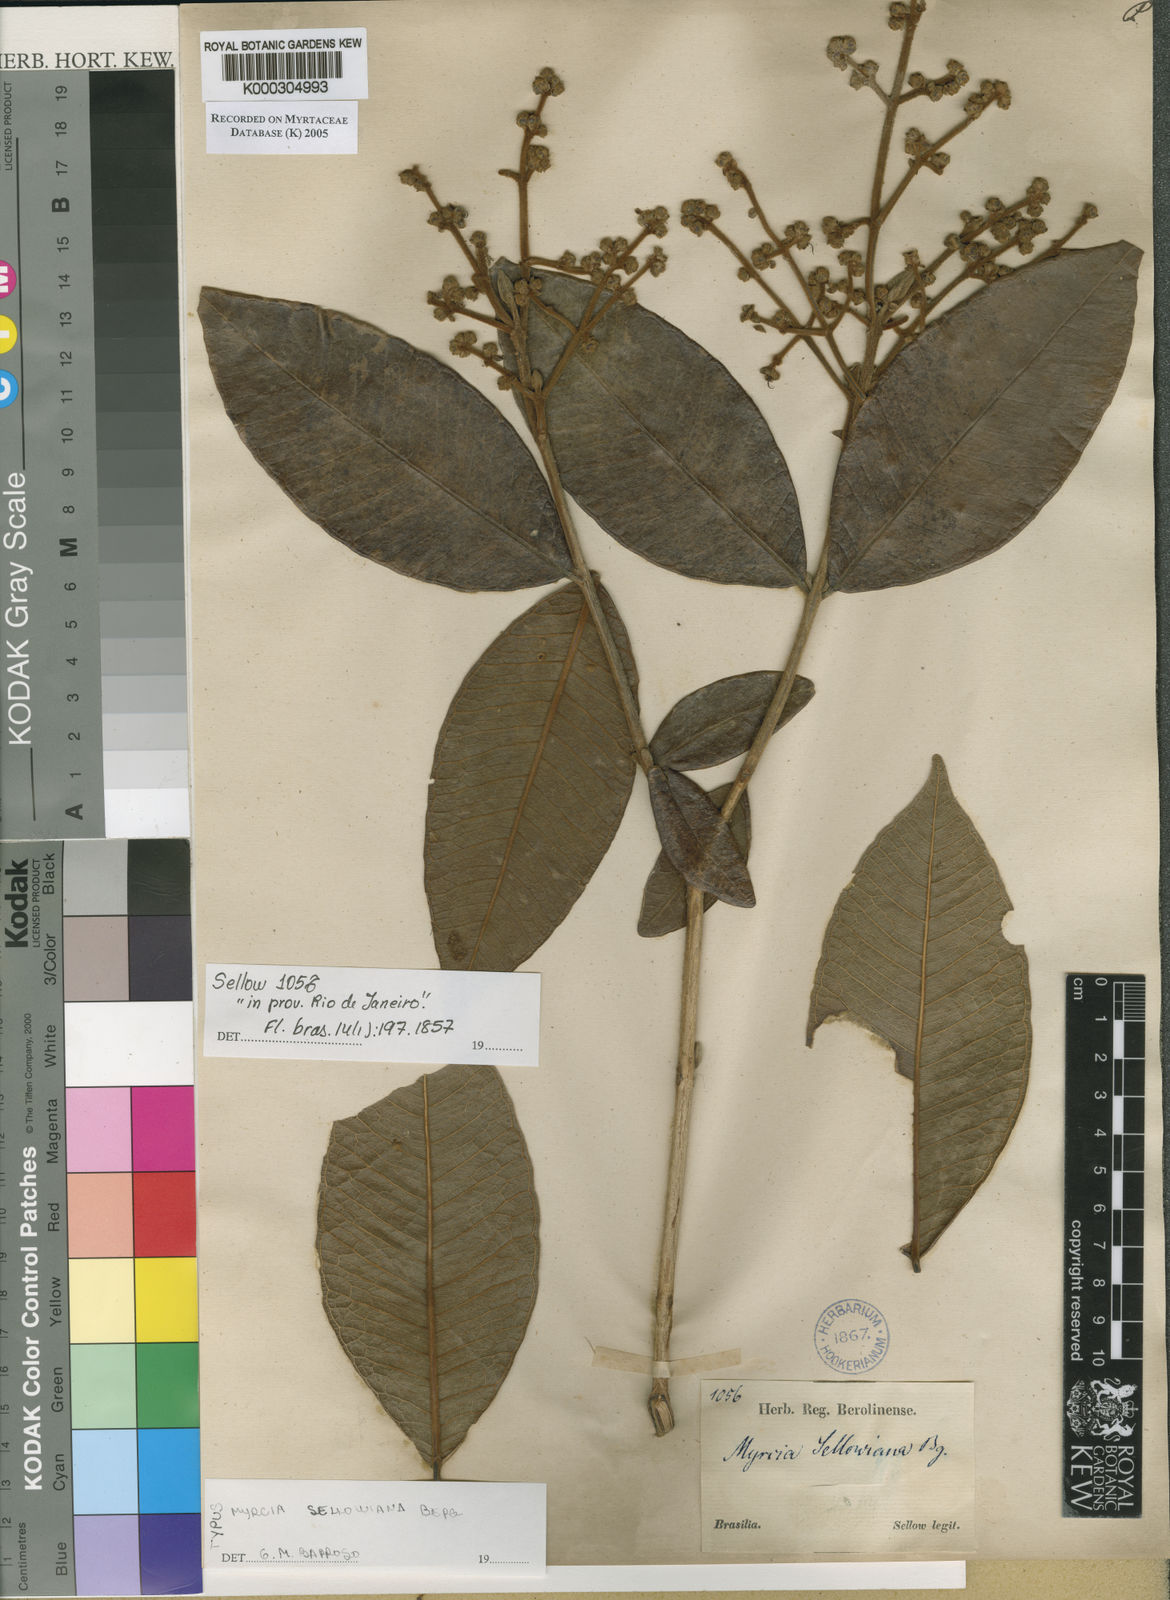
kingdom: Plantae
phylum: Tracheophyta
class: Magnoliopsida
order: Myrtales
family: Myrtaceae
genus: Myrcia
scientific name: Myrcia splendens
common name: Surinam cherry
